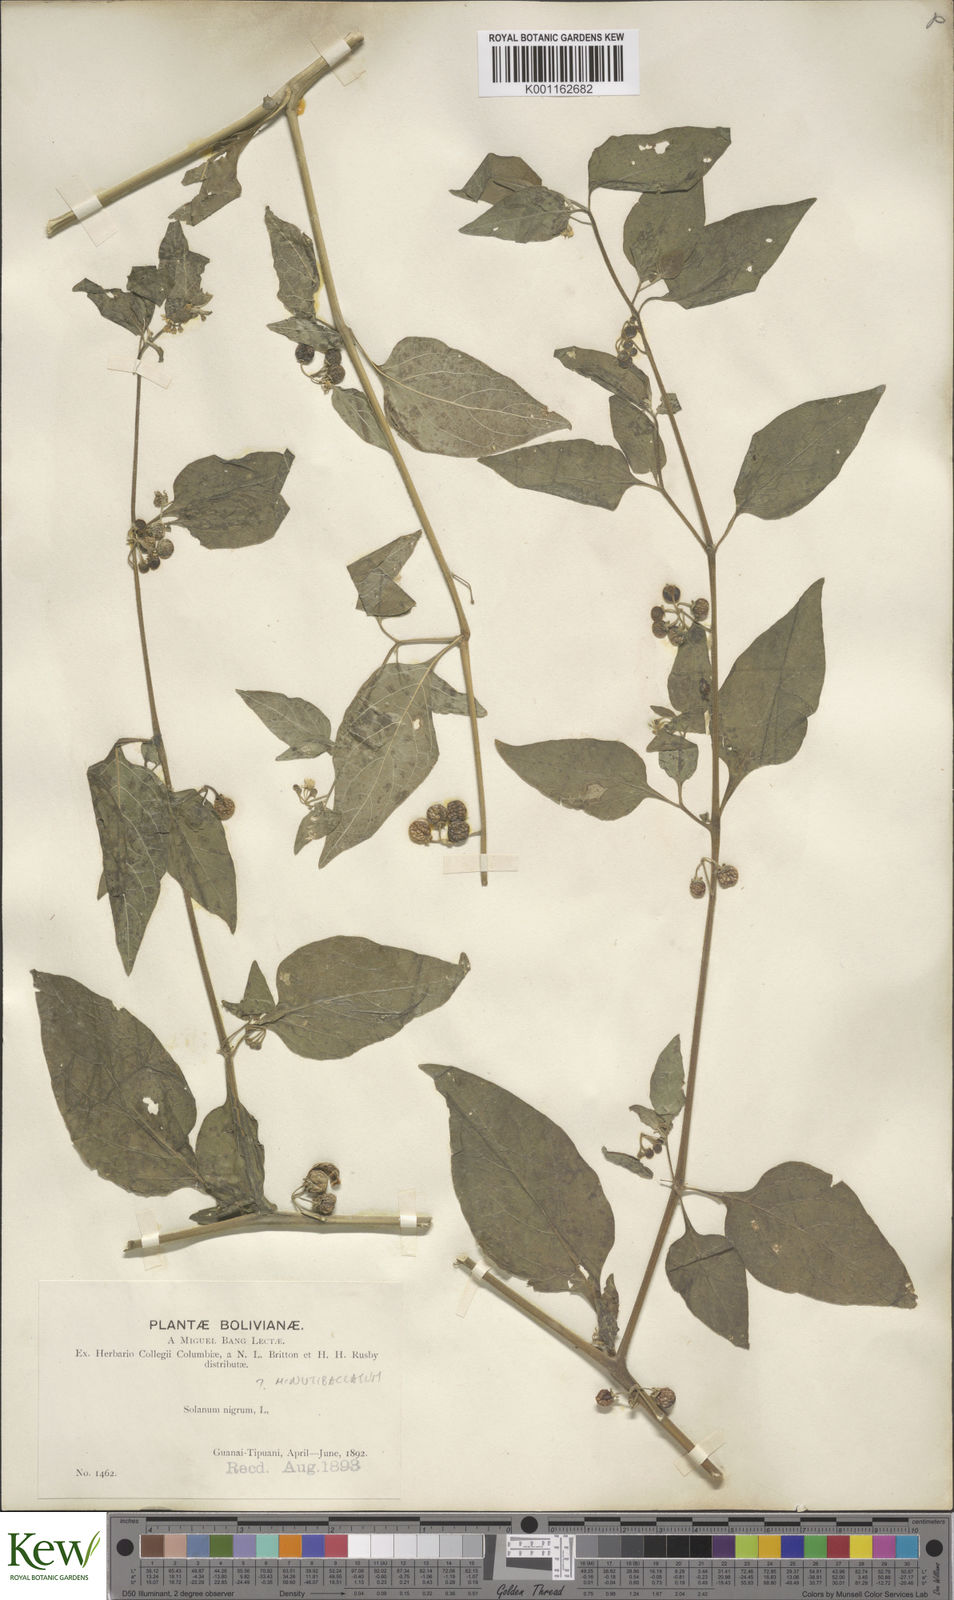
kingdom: Plantae
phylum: Tracheophyta
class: Magnoliopsida
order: Solanales
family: Solanaceae
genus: Solanum
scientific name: Solanum americanum
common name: American black nightshade
